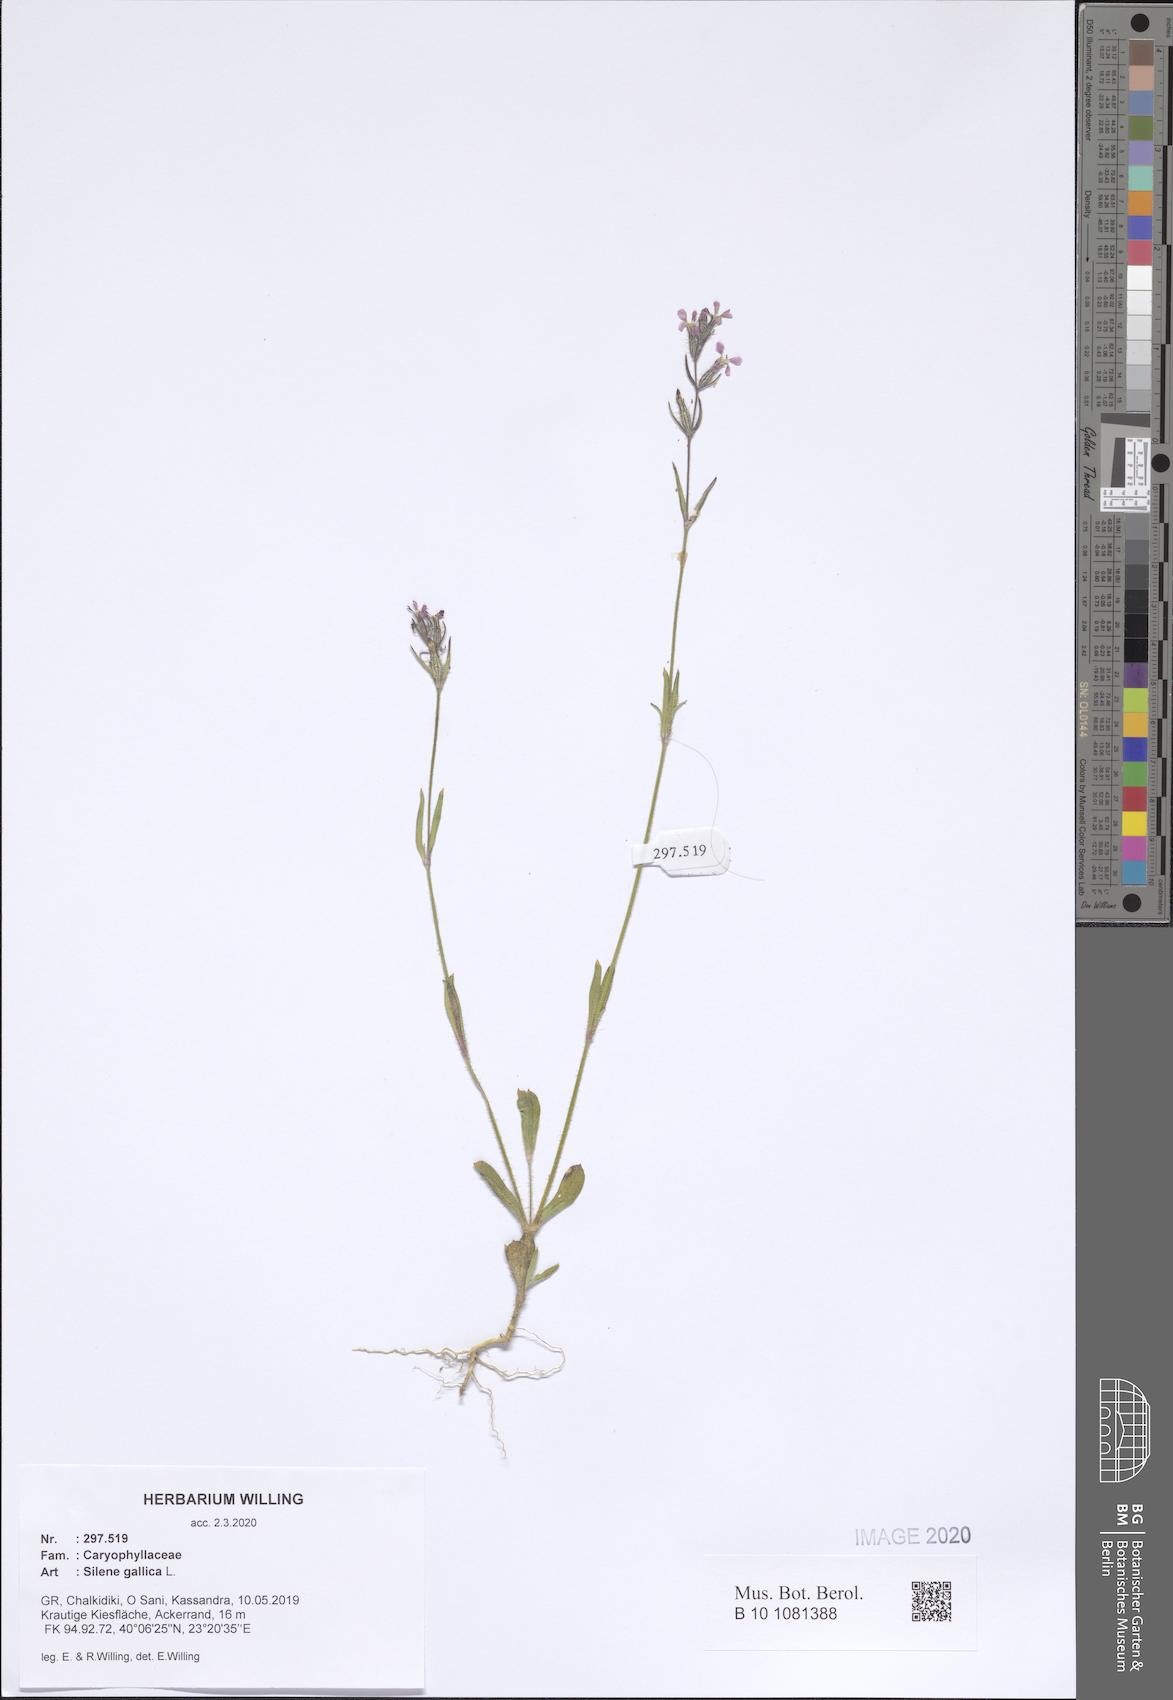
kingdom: Plantae
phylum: Tracheophyta
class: Magnoliopsida
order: Caryophyllales
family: Caryophyllaceae
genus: Silene
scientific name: Silene gallica
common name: Small-flowered catchfly
